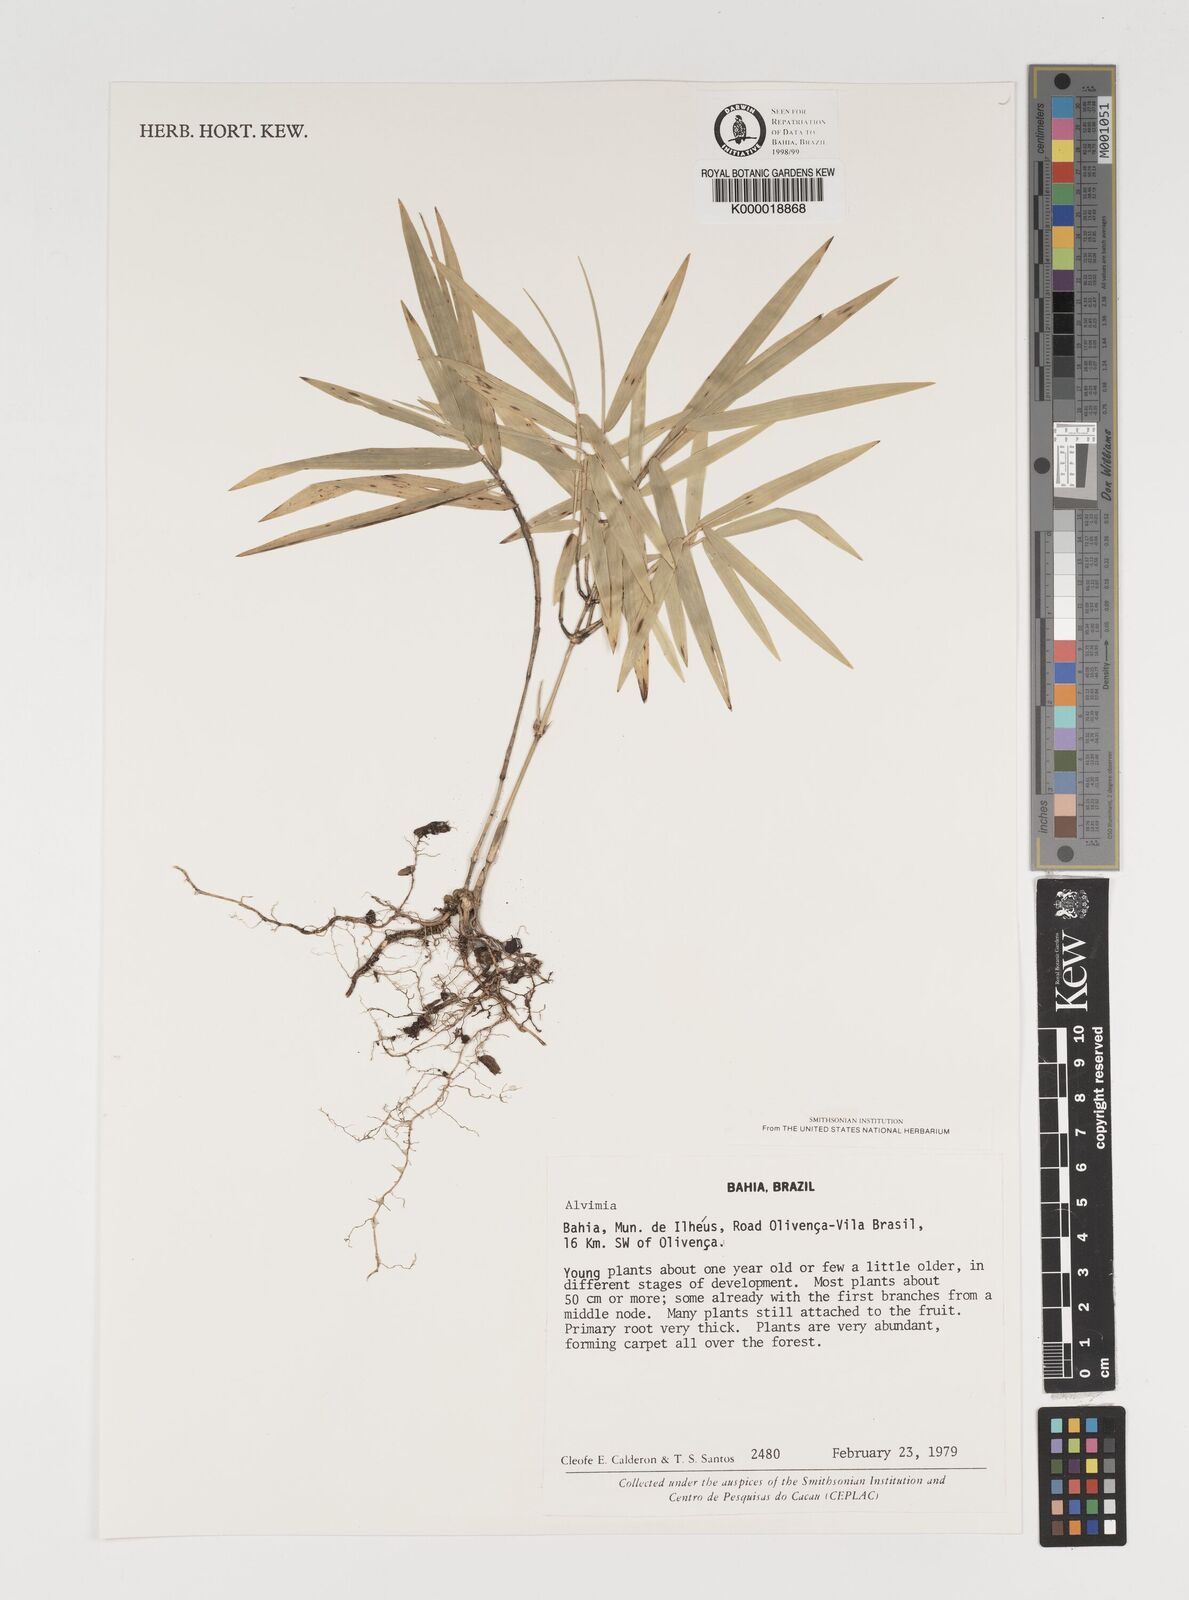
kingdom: Plantae
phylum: Tracheophyta
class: Liliopsida
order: Poales
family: Poaceae
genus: Alvimia
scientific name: Alvimia
